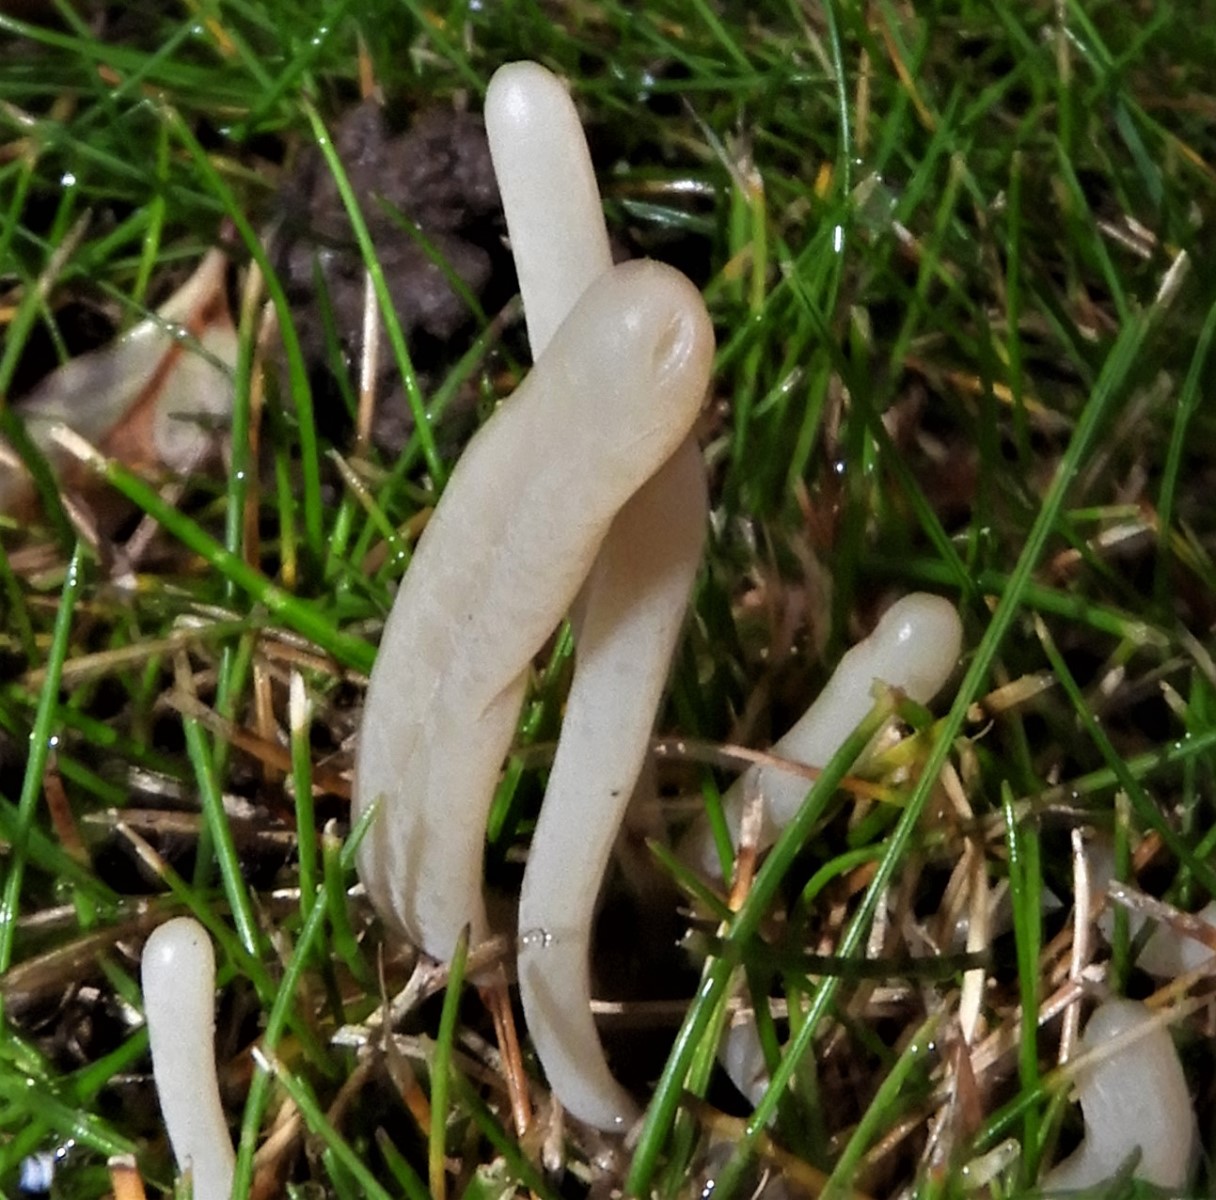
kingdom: Fungi
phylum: Basidiomycota
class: Agaricomycetes
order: Agaricales
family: Clavariaceae
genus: Clavaria
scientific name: Clavaria tenuipes
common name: isabellafarvet køllesvamp
